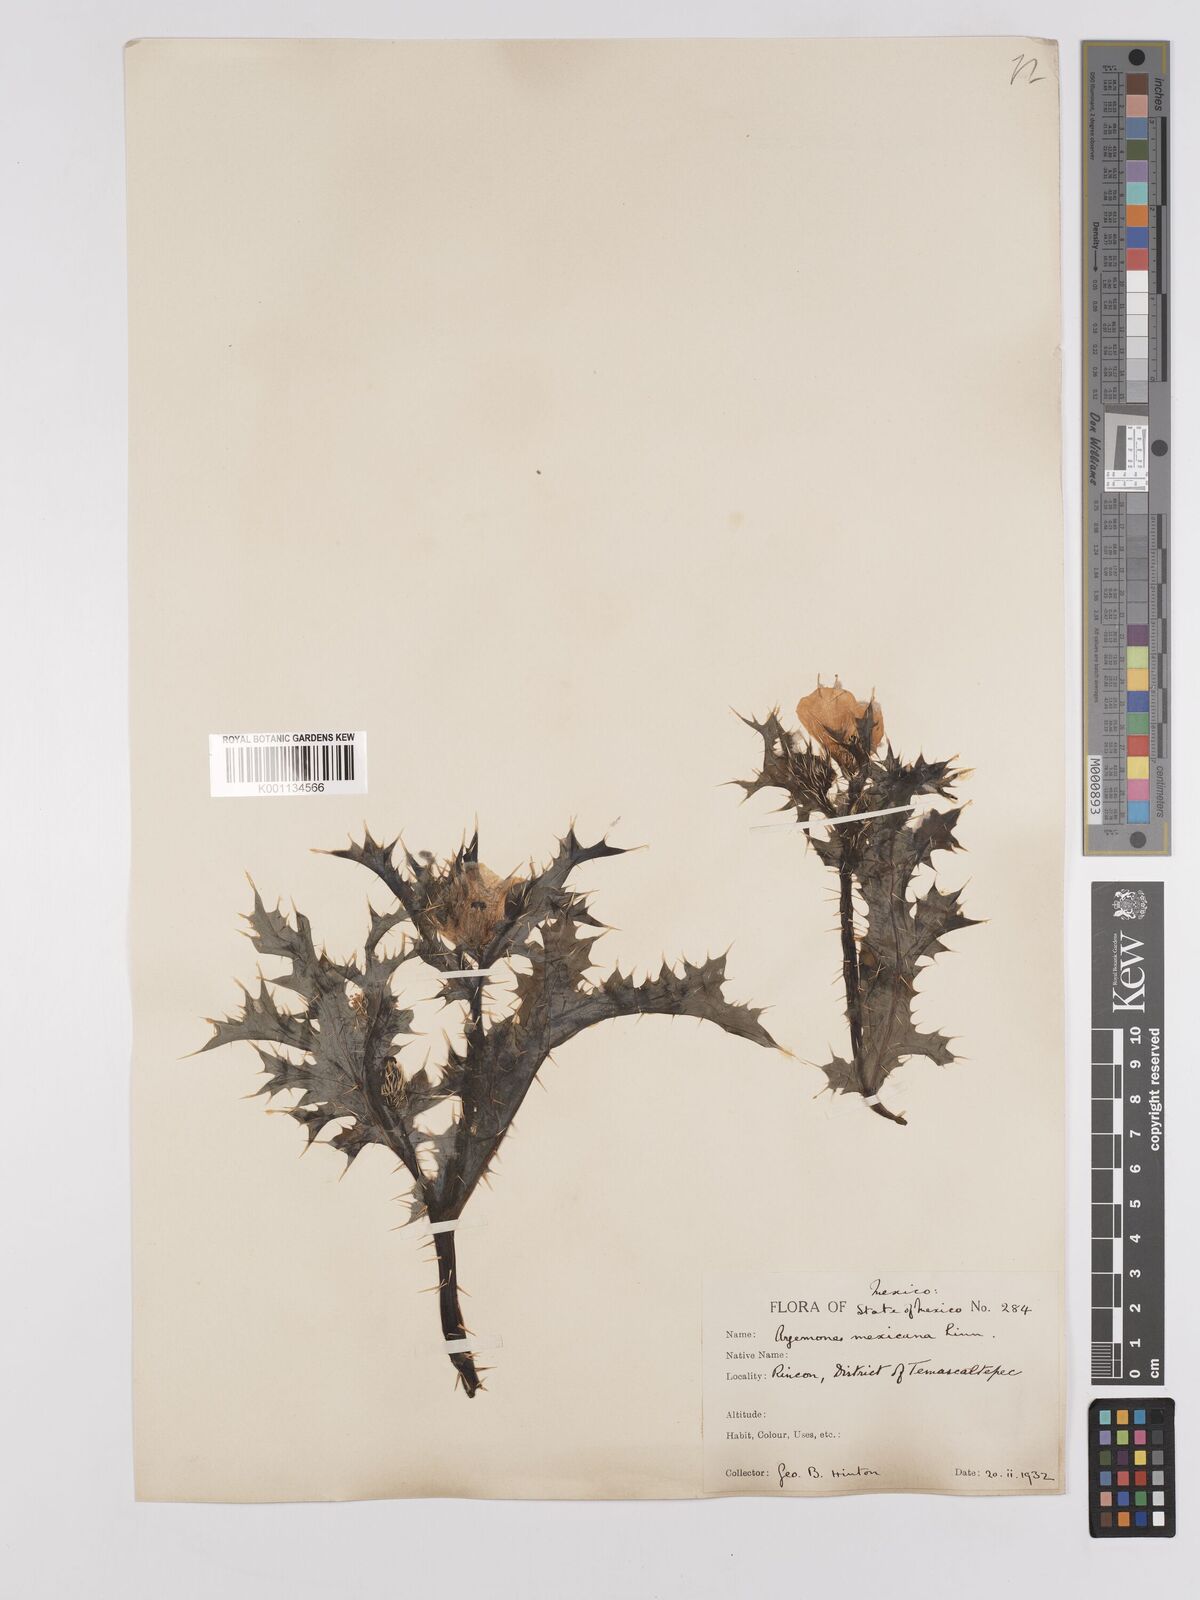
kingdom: Plantae
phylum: Tracheophyta
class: Magnoliopsida
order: Ranunculales
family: Papaveraceae
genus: Argemone
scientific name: Argemone mexicana
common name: Mexican poppy
